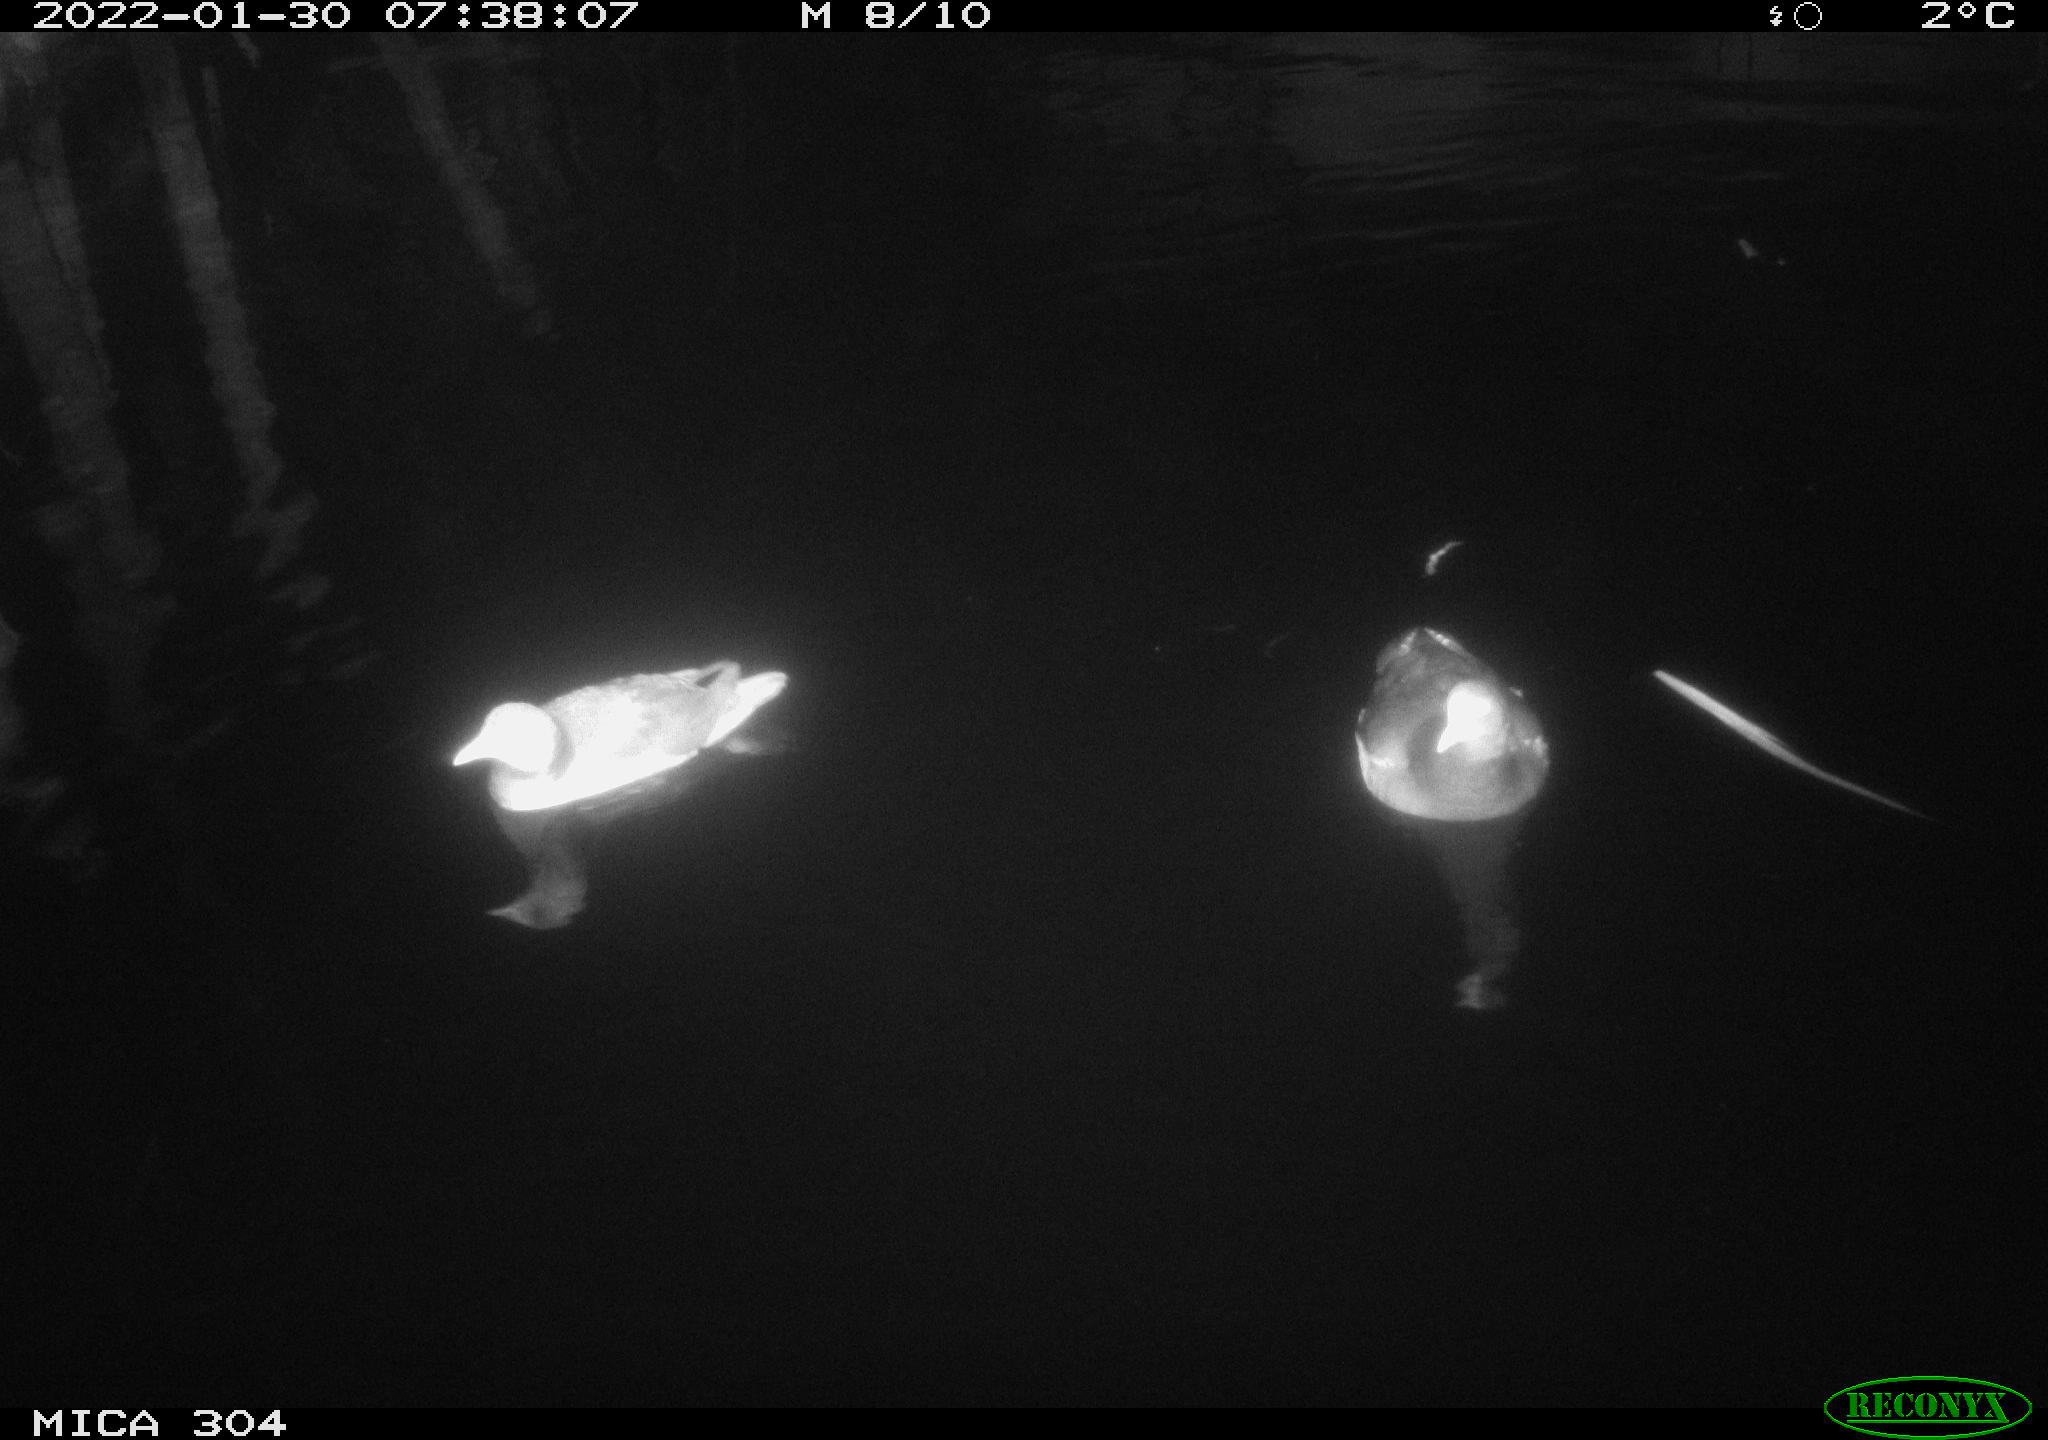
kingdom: Animalia
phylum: Chordata
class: Aves
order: Anseriformes
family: Anatidae
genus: Anas
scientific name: Anas
